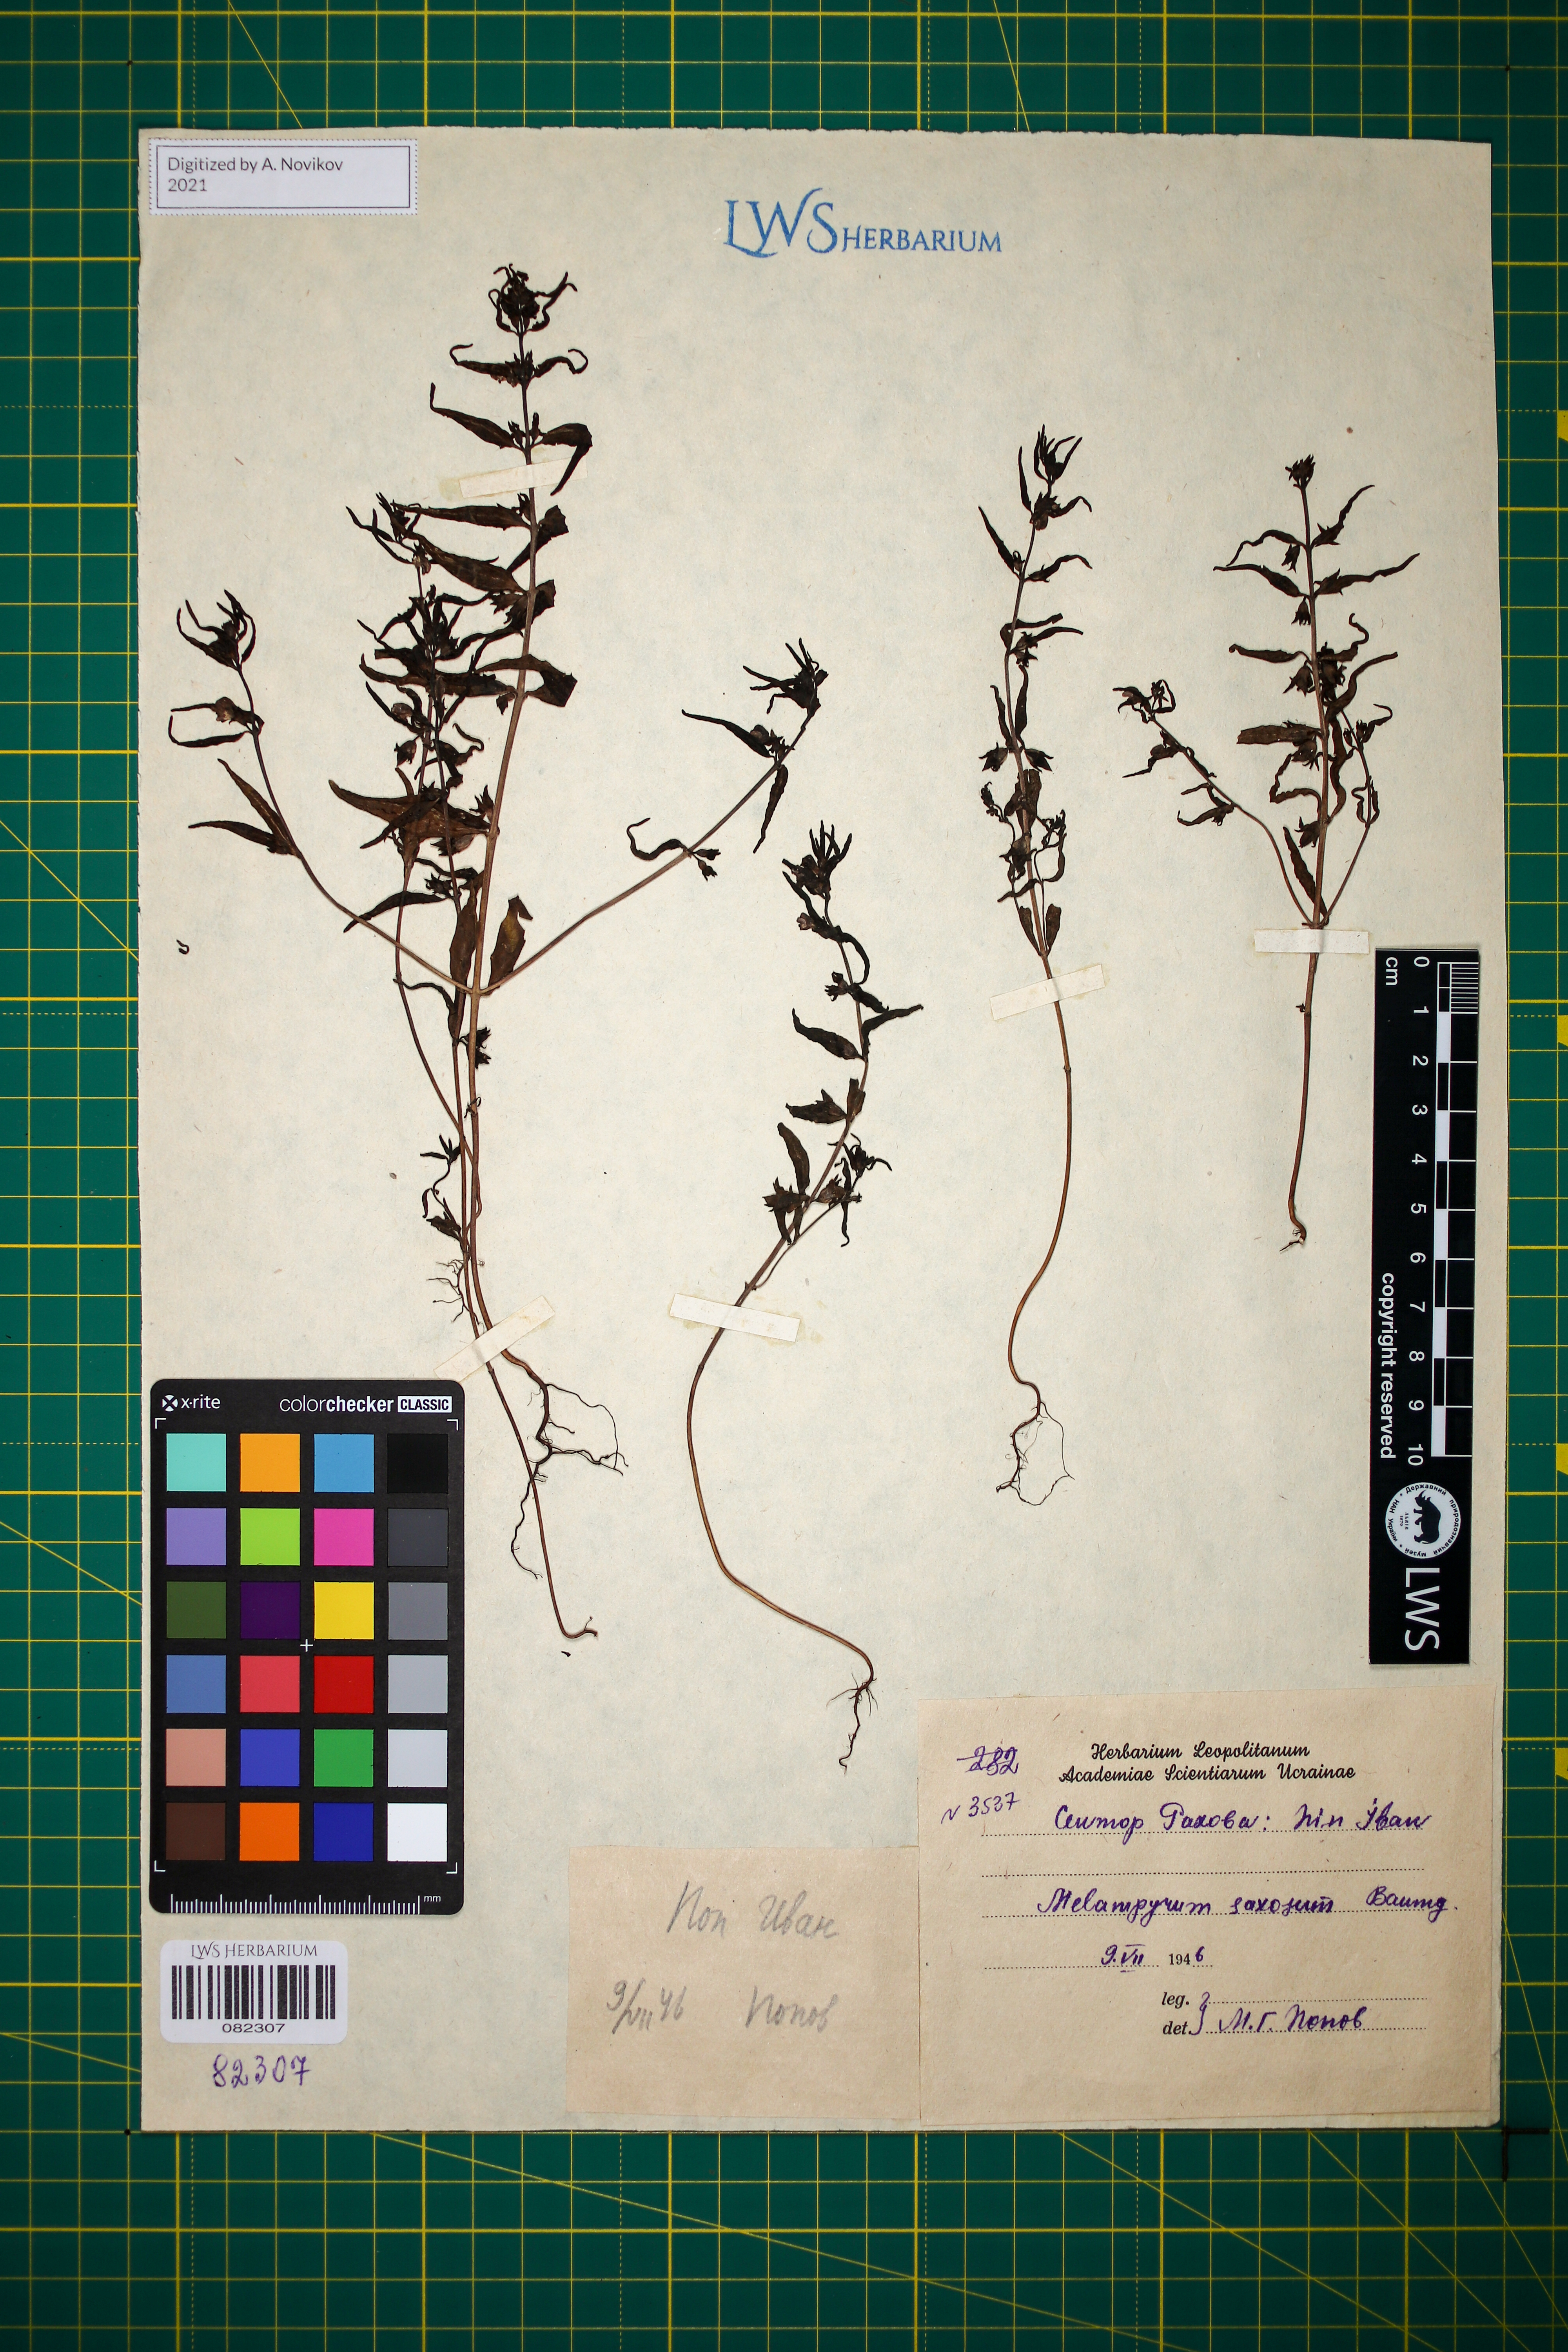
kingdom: Plantae
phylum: Tracheophyta
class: Magnoliopsida
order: Lamiales
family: Orobanchaceae
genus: Melampyrum
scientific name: Melampyrum saxosum
